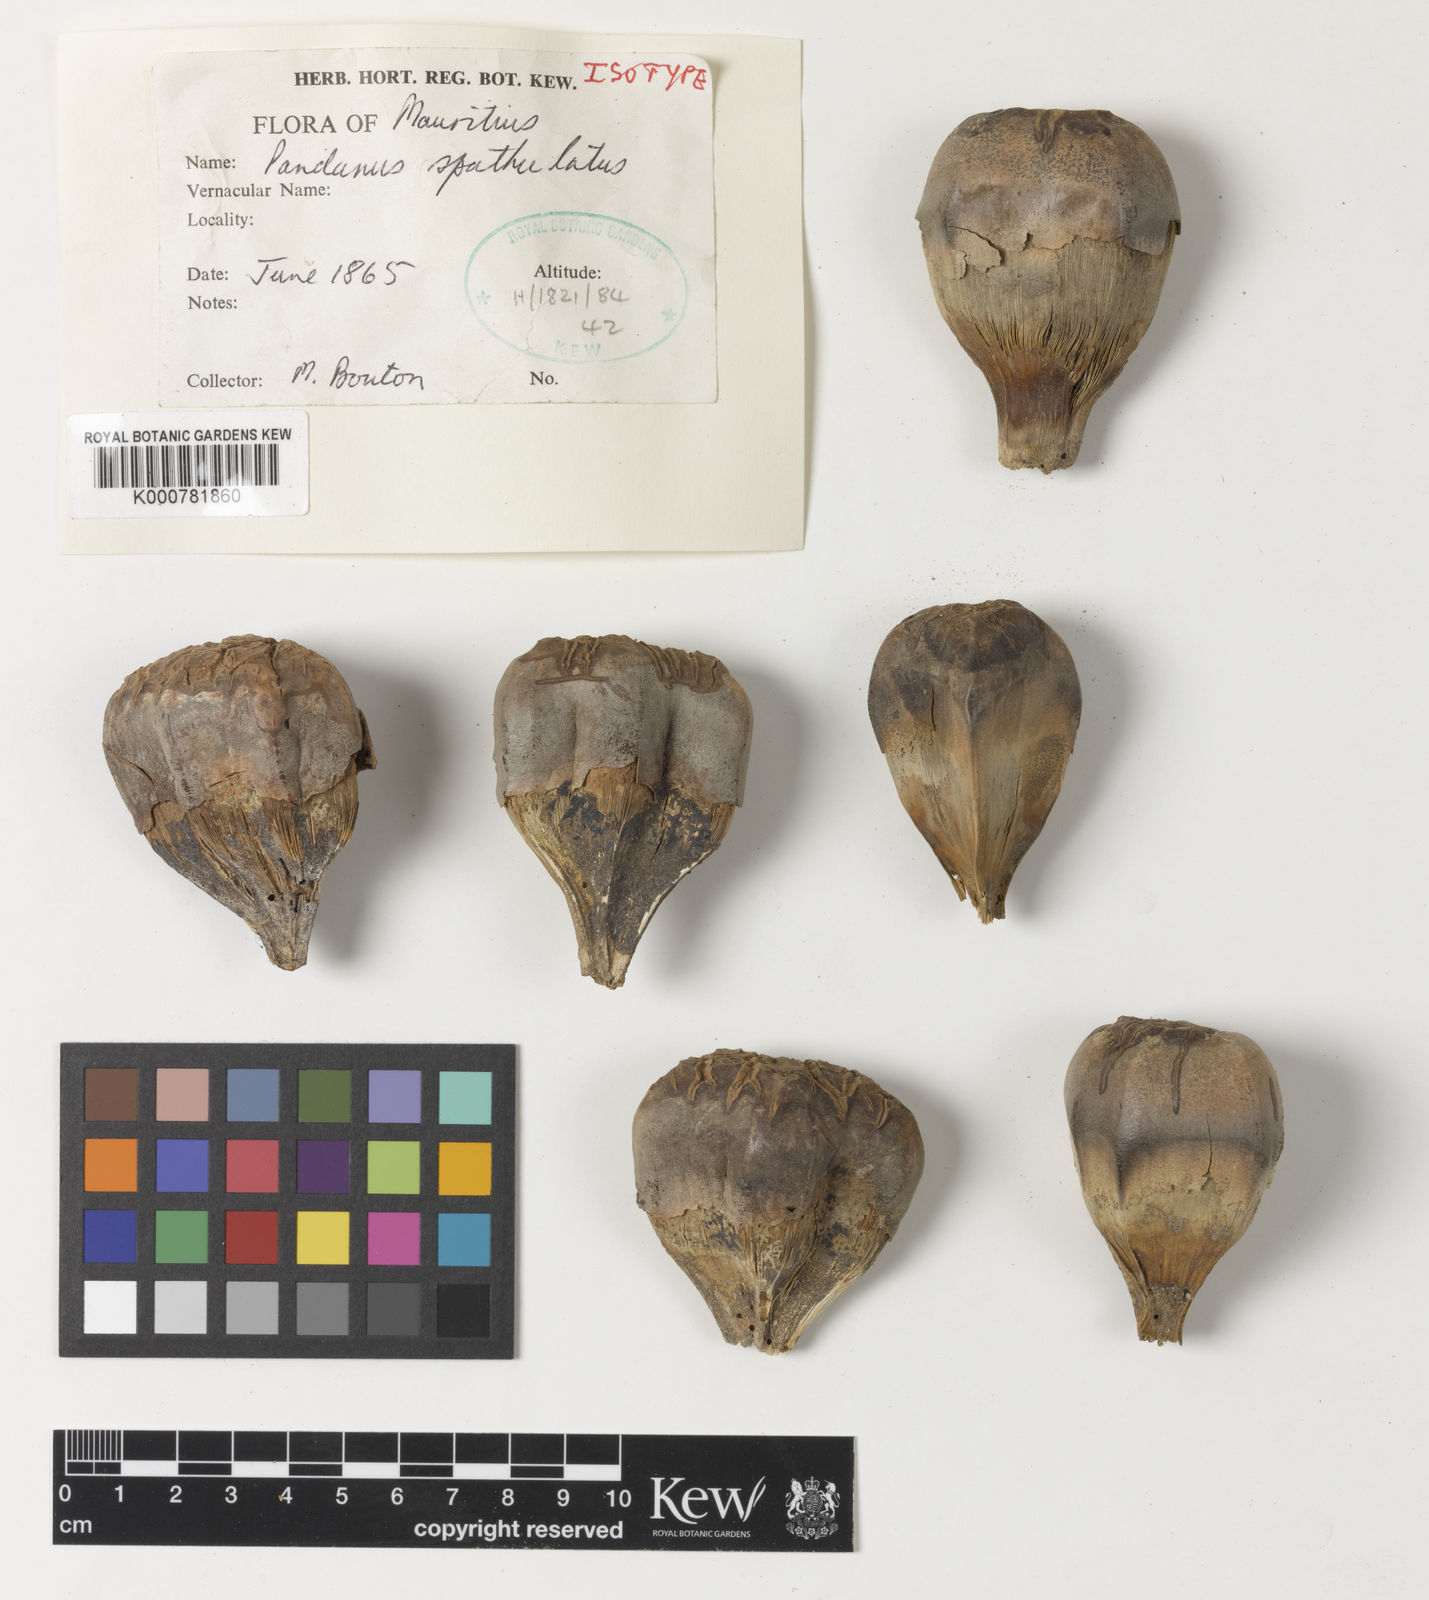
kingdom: Plantae
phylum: Tracheophyta
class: Liliopsida
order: Pandanales
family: Pandanaceae
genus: Pandanus
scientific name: Pandanus spathulatus
